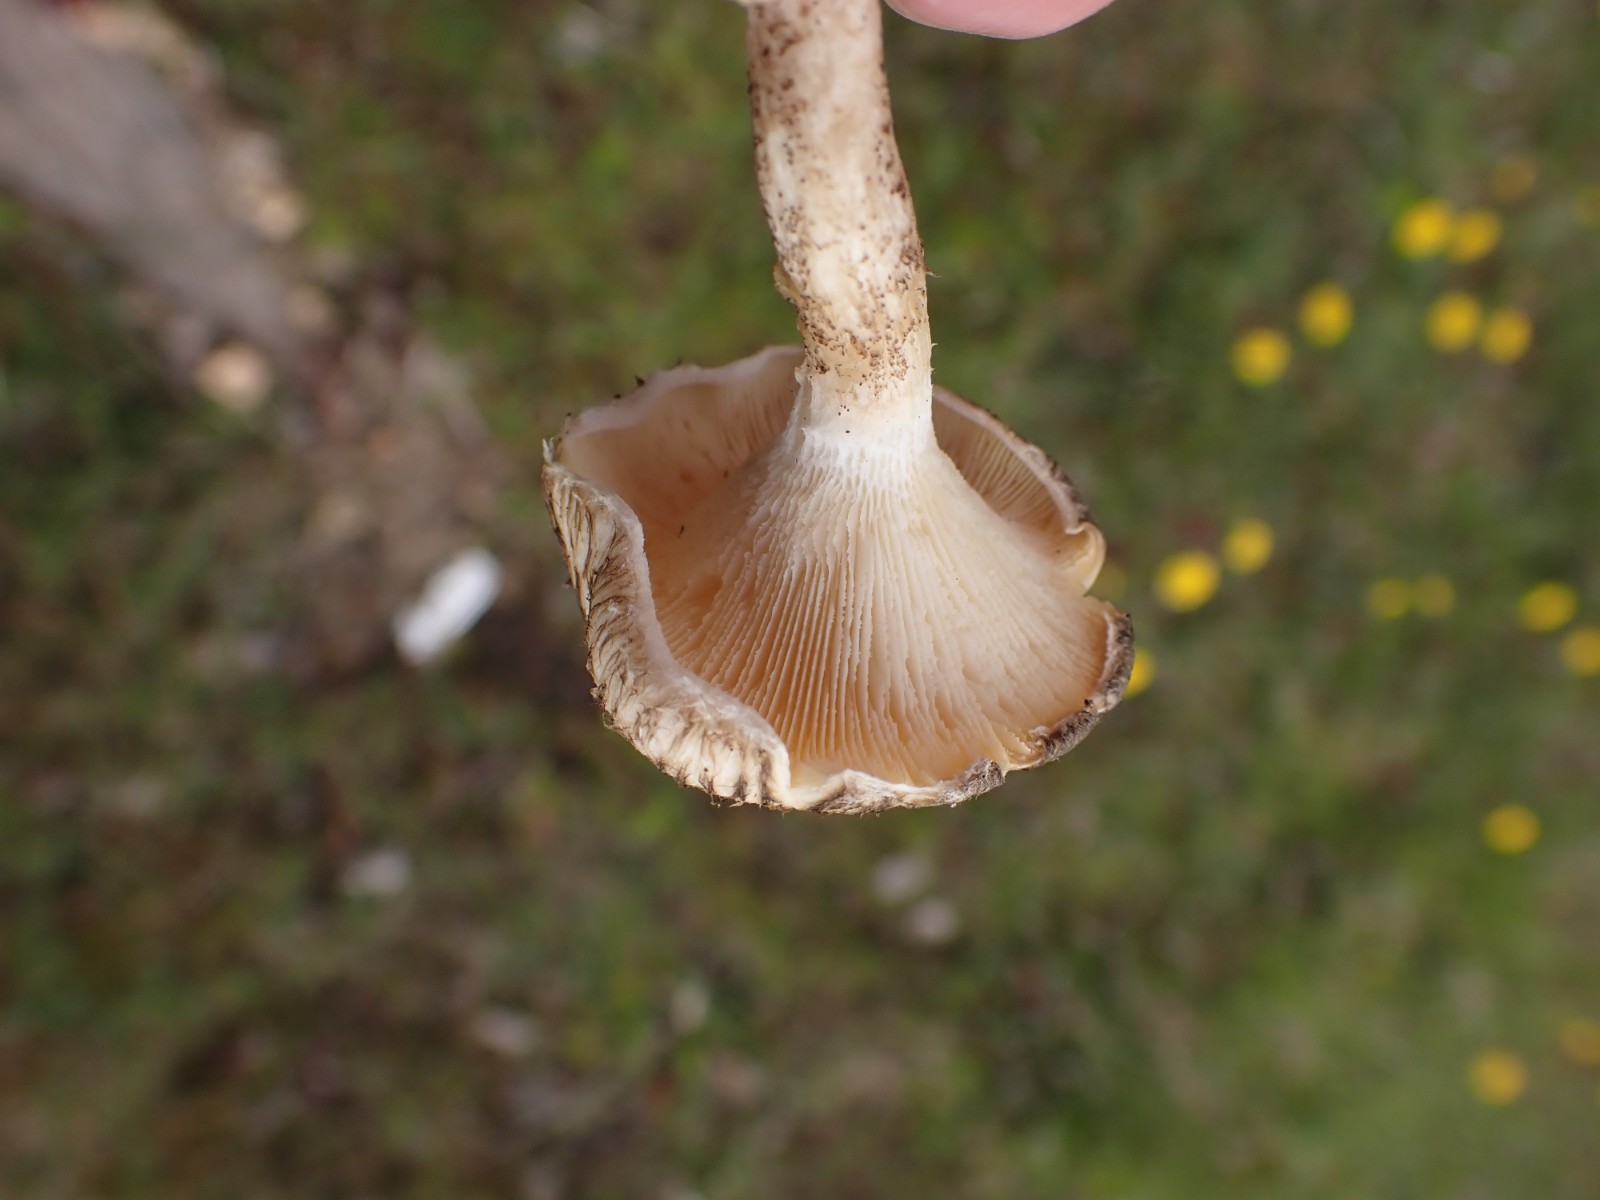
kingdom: Fungi
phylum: Basidiomycota
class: Agaricomycetes
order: Polyporales
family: Polyporaceae
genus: Lentinus
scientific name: Lentinus tigrinus
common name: tigerhat
